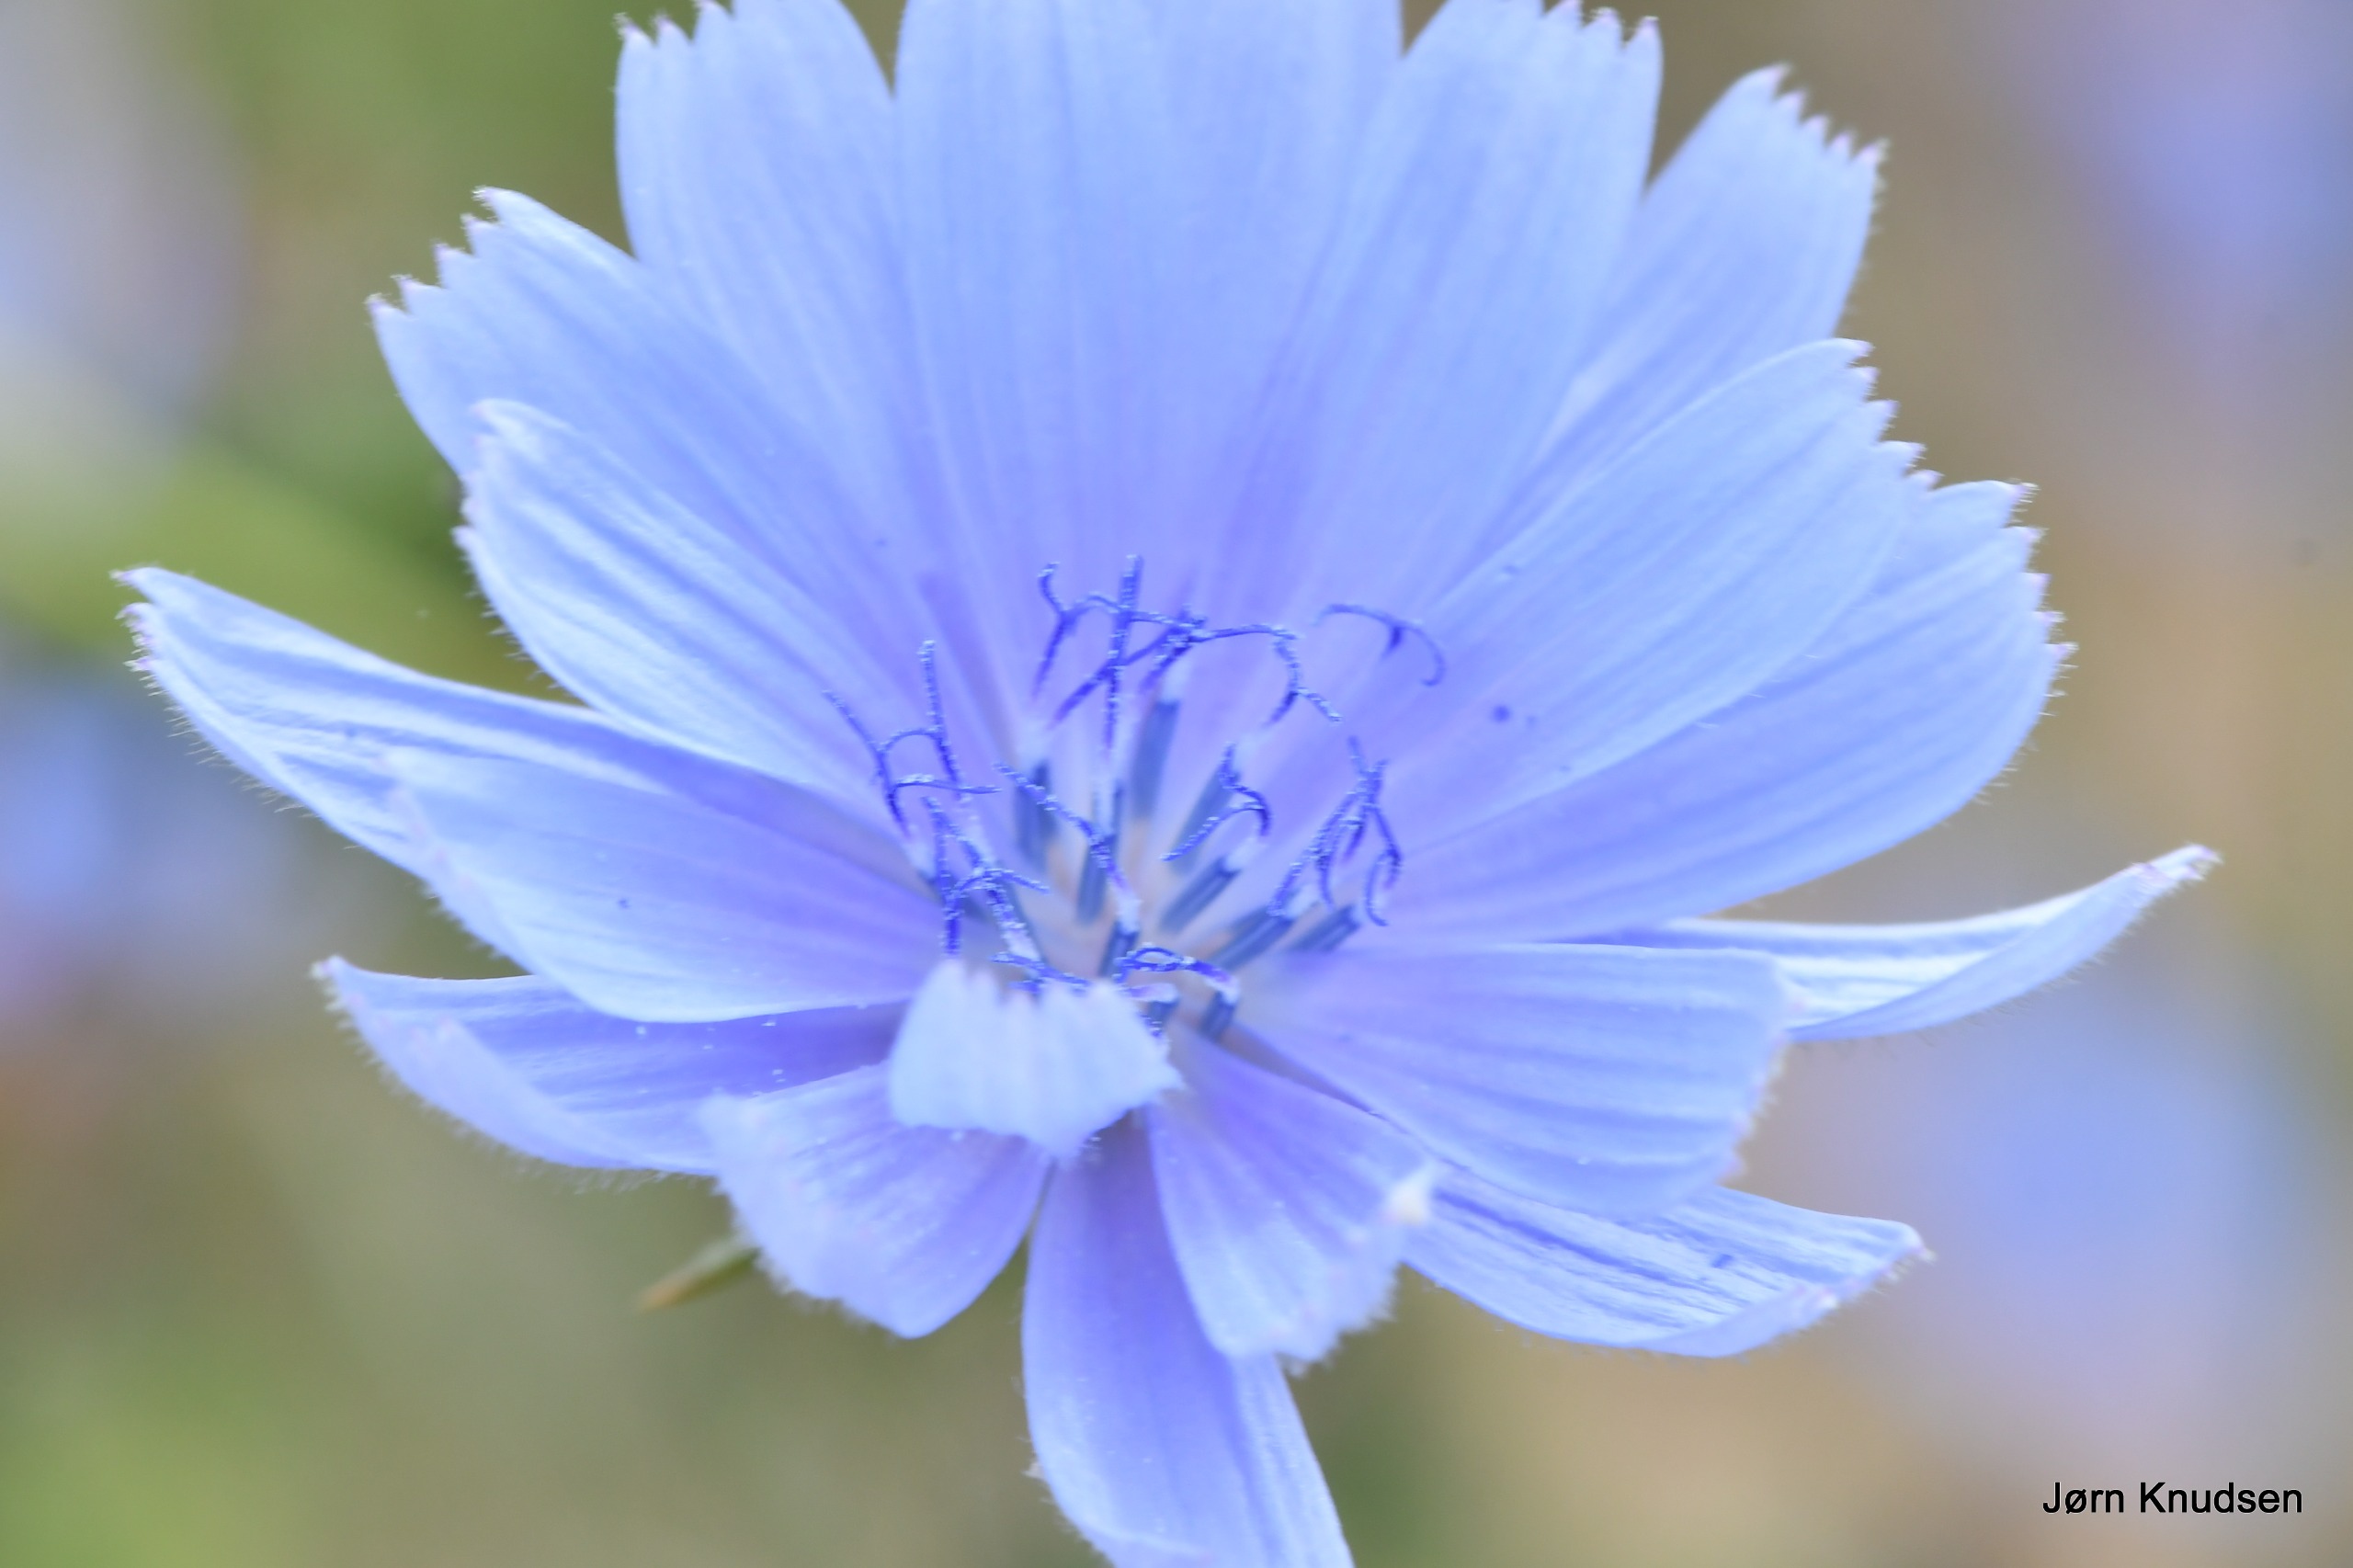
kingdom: Plantae
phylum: Tracheophyta
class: Magnoliopsida
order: Asterales
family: Asteraceae
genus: Cichorium
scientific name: Cichorium intybus
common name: Cikorie
